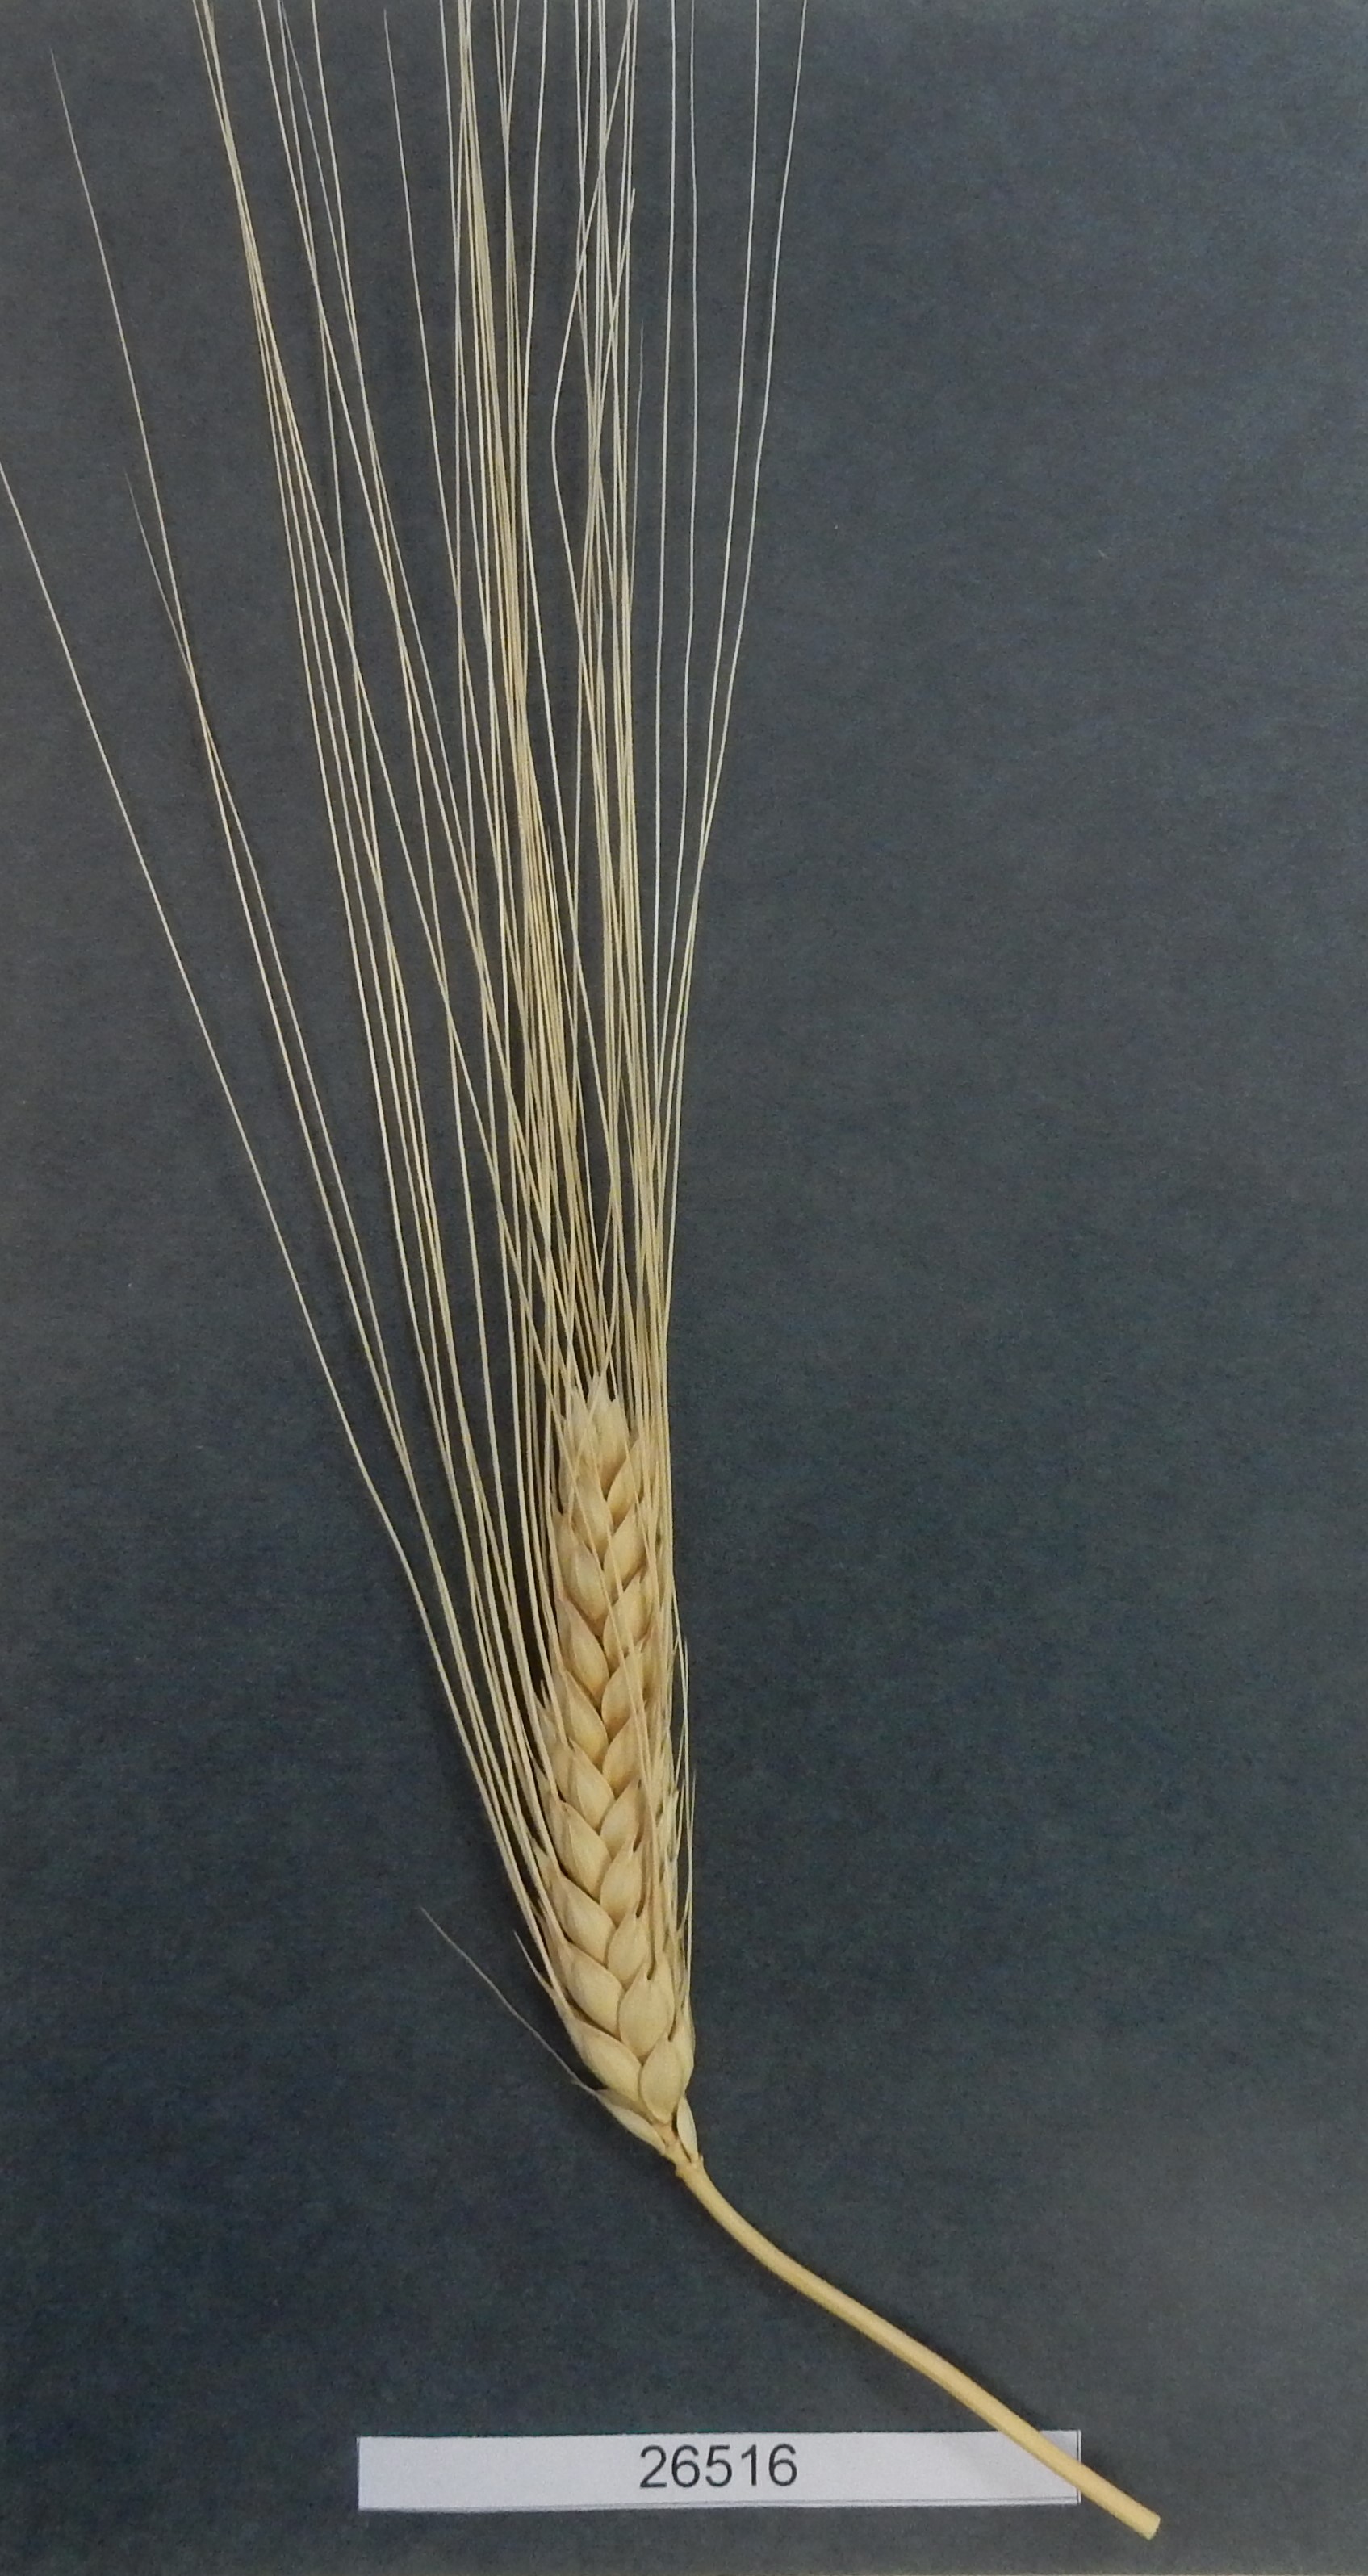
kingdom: Plantae
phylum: Tracheophyta
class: Liliopsida
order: Poales
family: Poaceae
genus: Triticum
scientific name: Triticum turgidum
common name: Wheat
